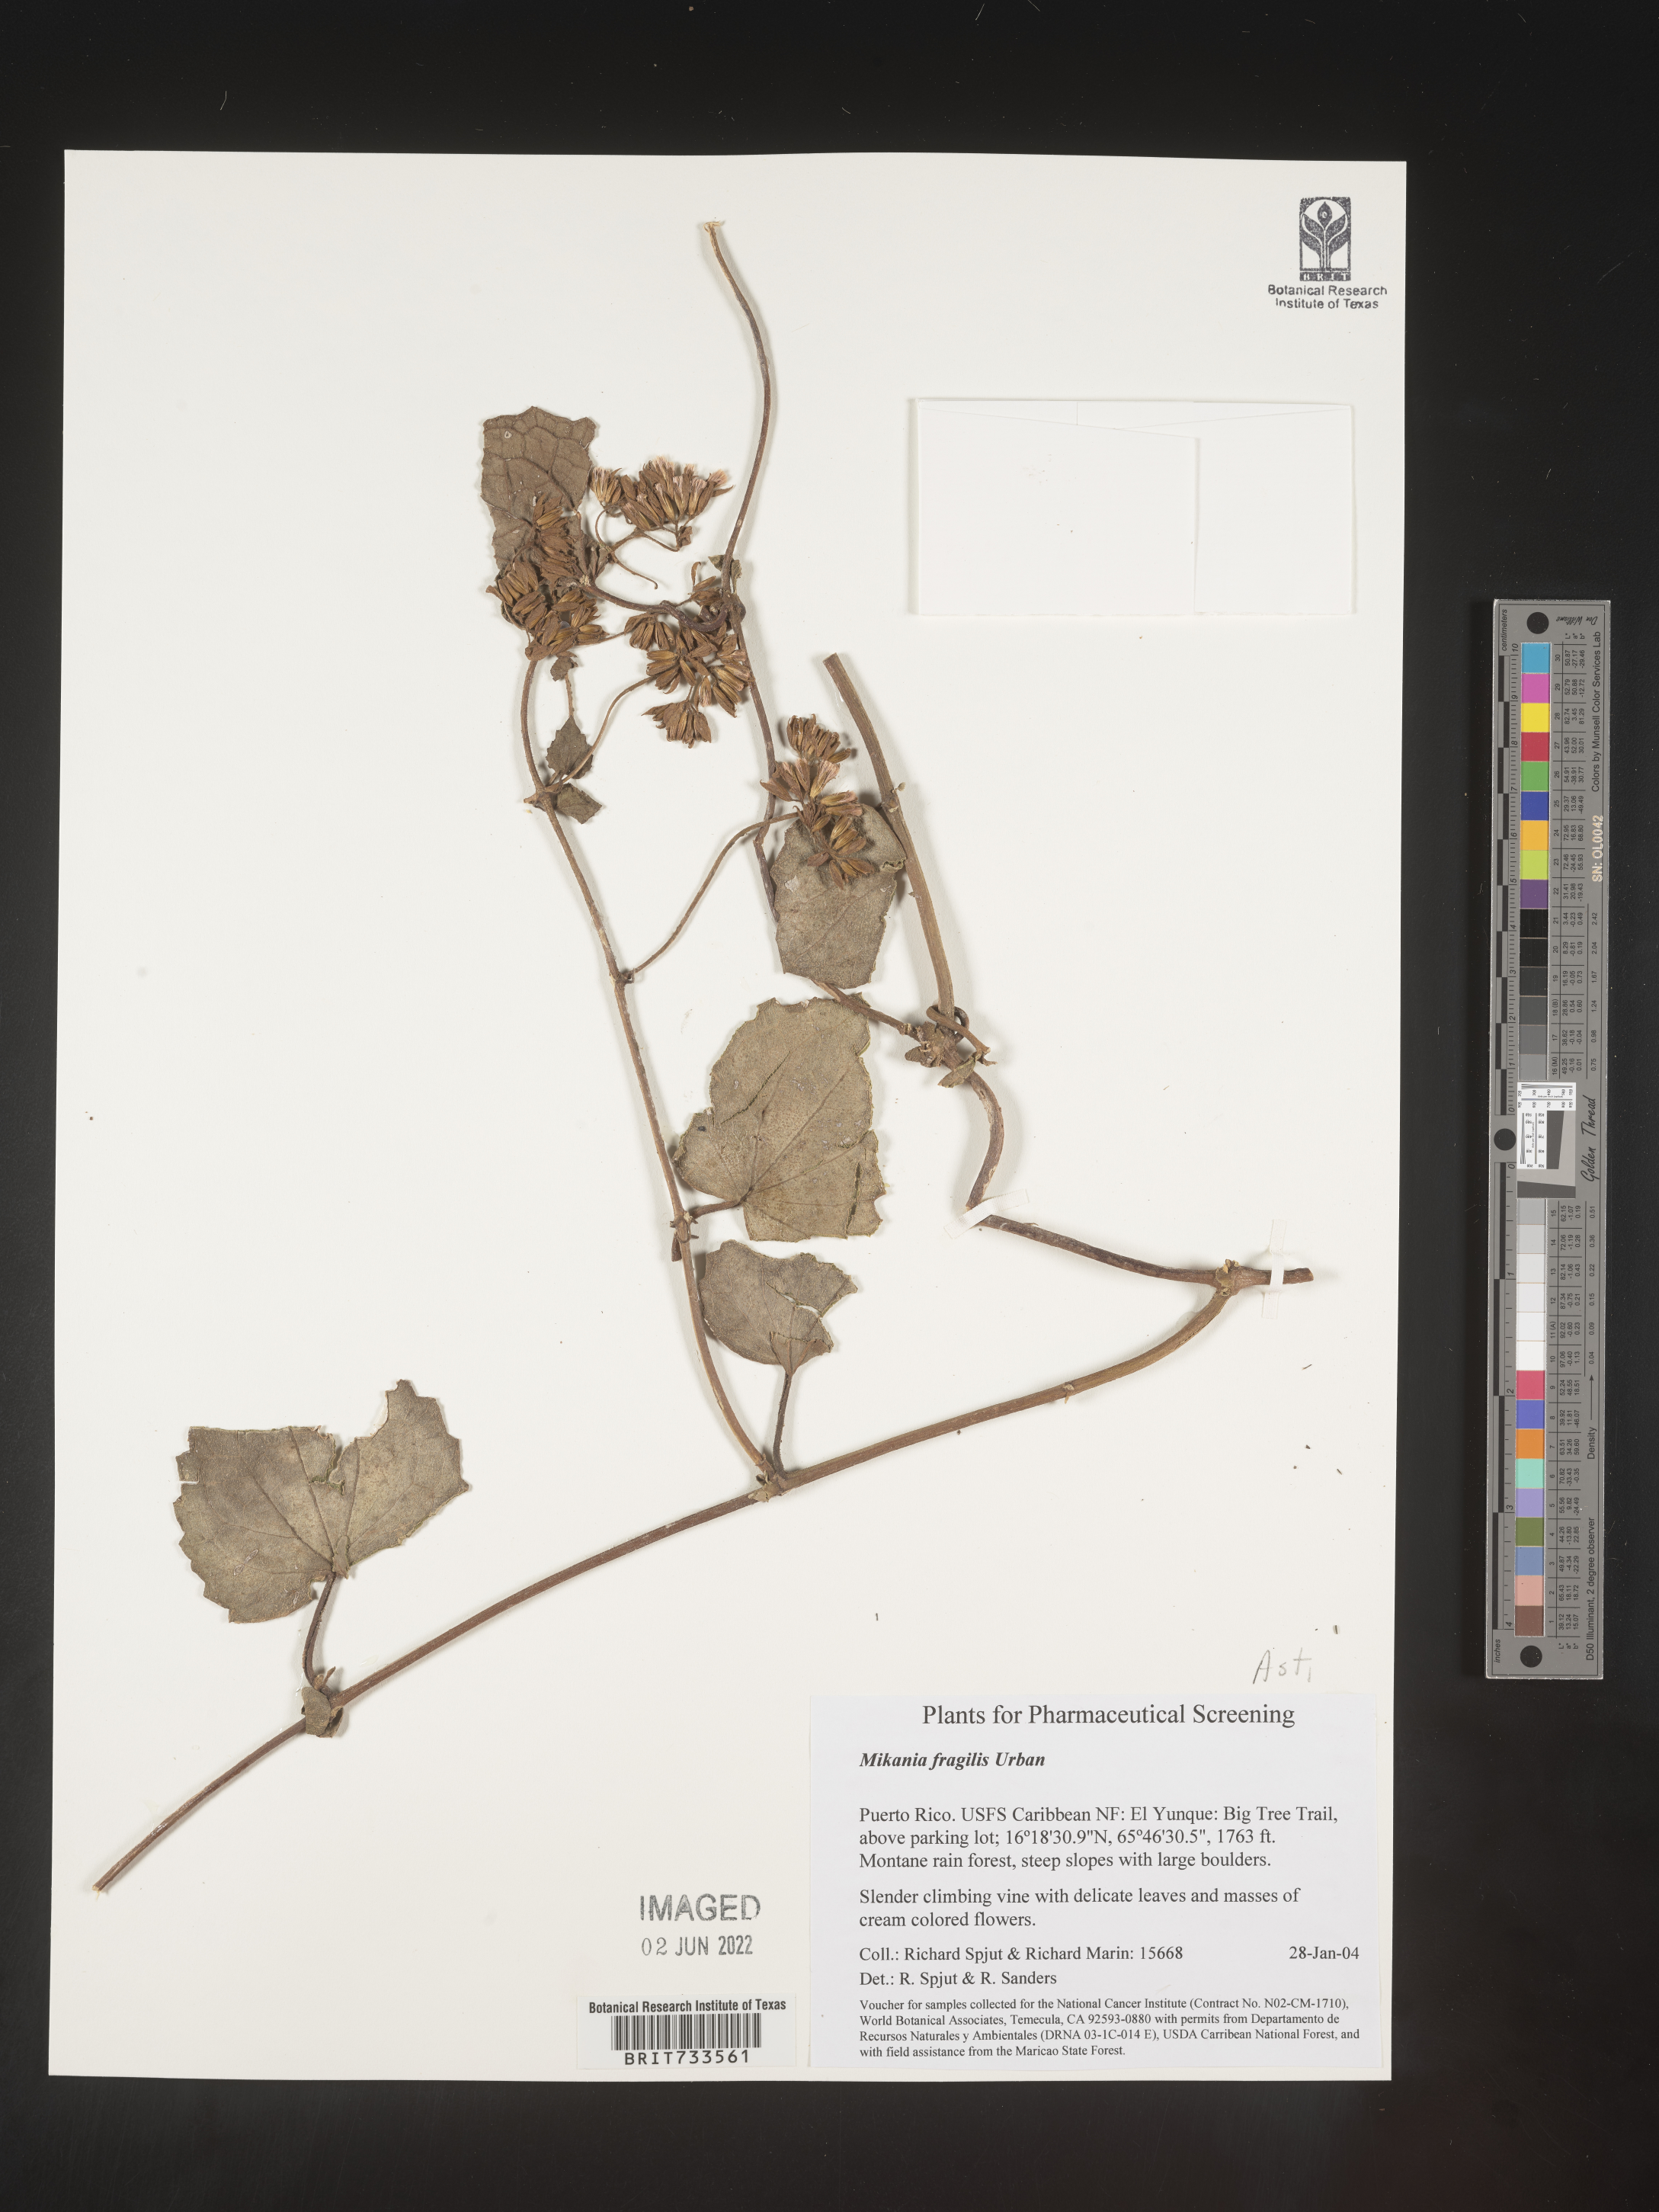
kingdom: Plantae
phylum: Tracheophyta
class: Magnoliopsida
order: Asterales
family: Asteraceae
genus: Mikania
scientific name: Mikania
